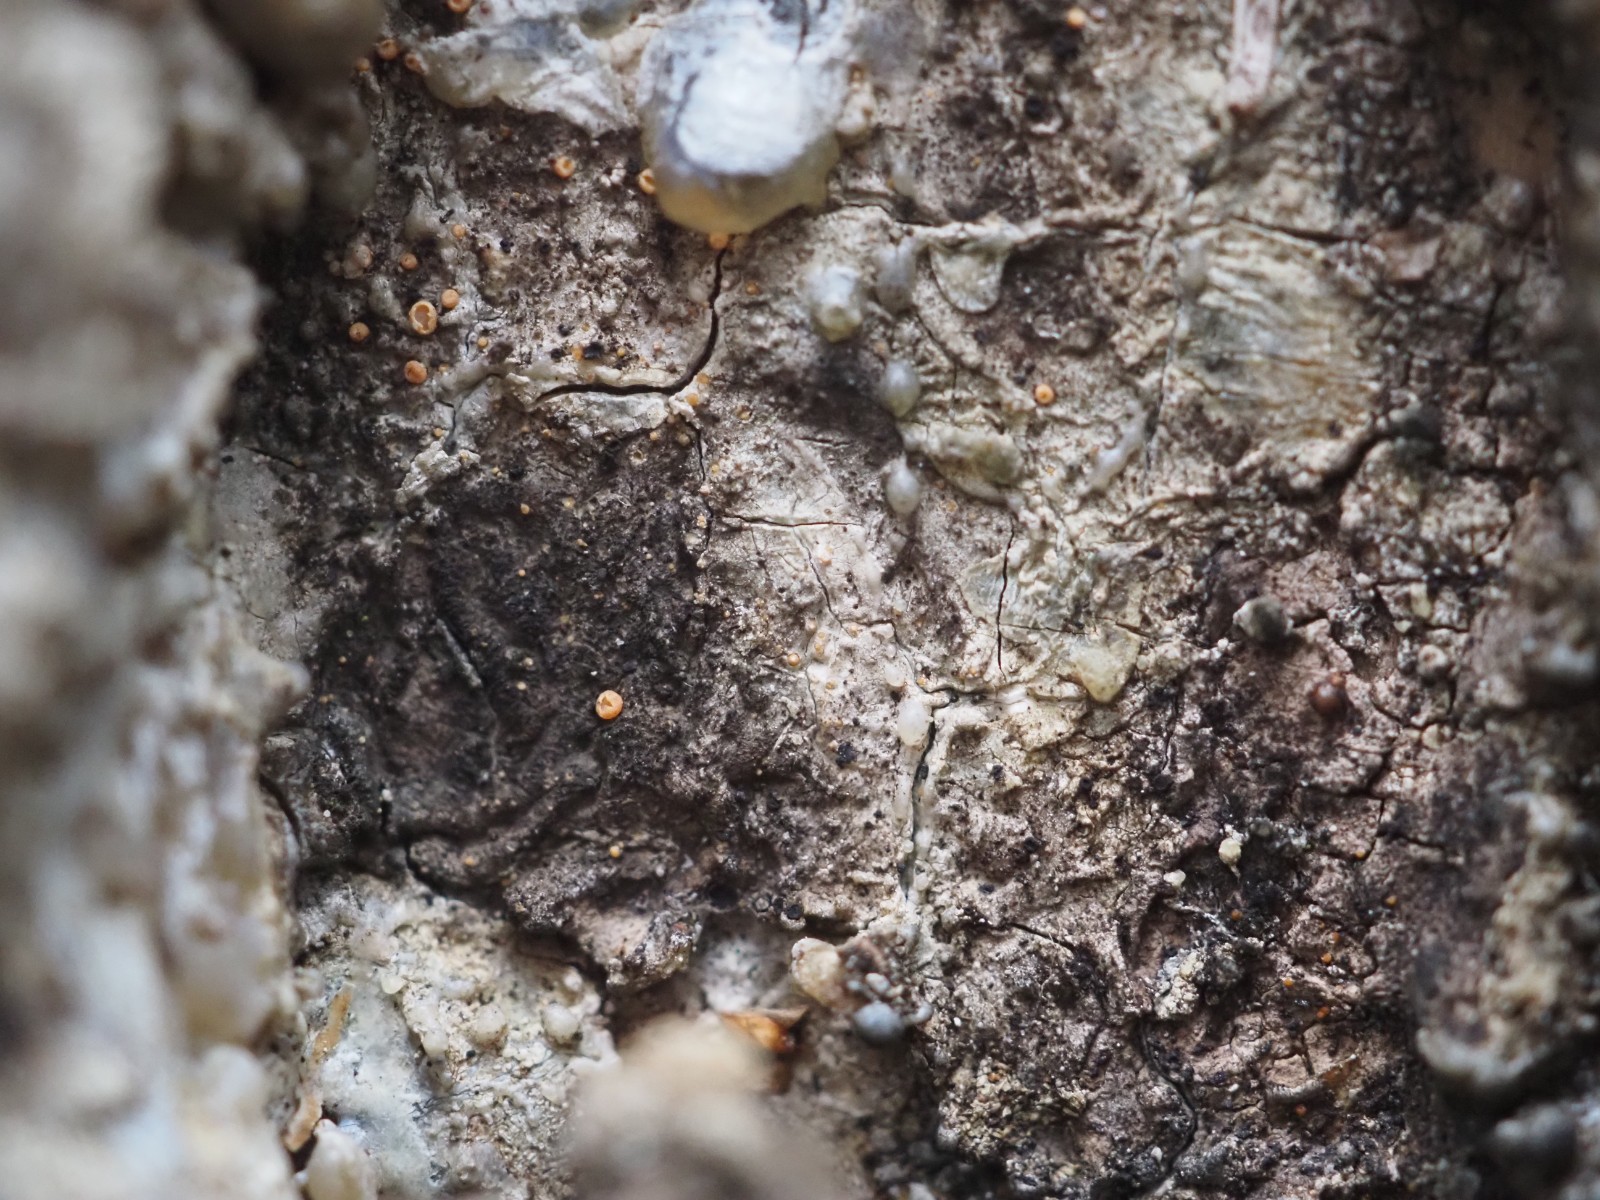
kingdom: Fungi
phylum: Ascomycota
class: Sareomycetes
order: Sareales
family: Sareaceae
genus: Sarea
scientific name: Sarea resinae
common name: orangegul harpiksskive
